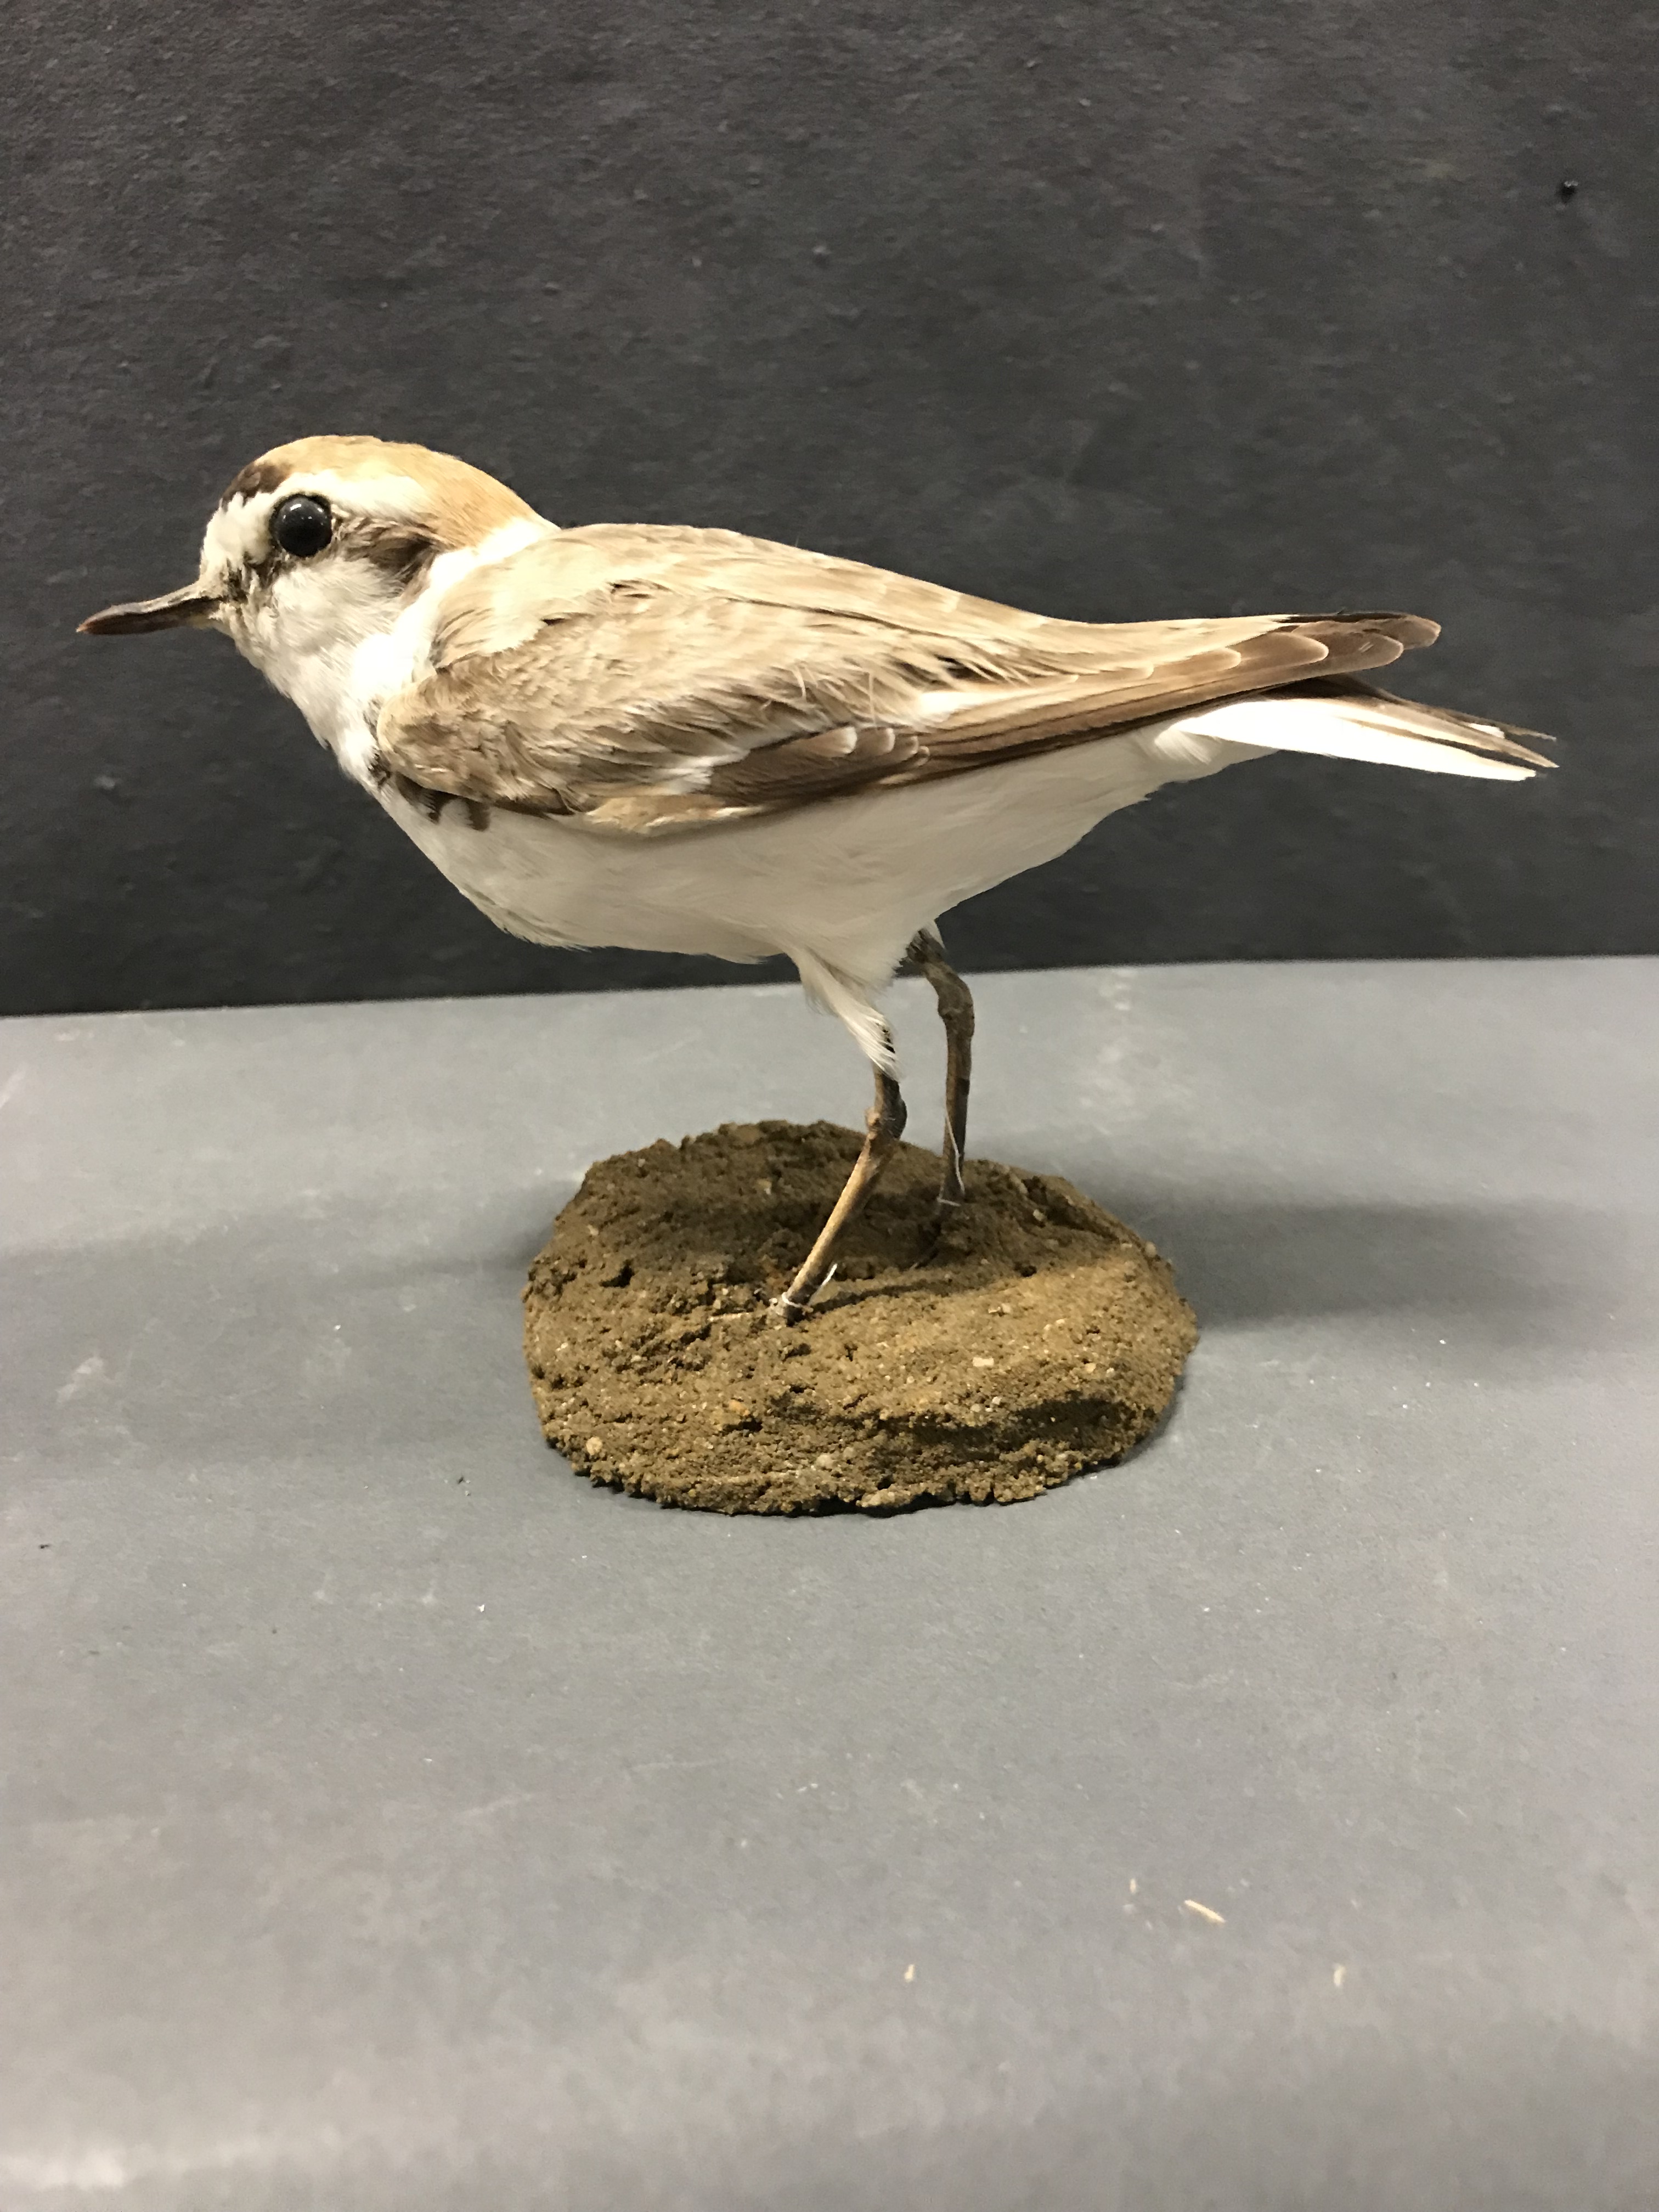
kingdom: Animalia
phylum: Chordata
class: Aves
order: Charadriiformes
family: Charadriidae
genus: Charadrius
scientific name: Charadrius alexandrinus
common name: Kentish plover
